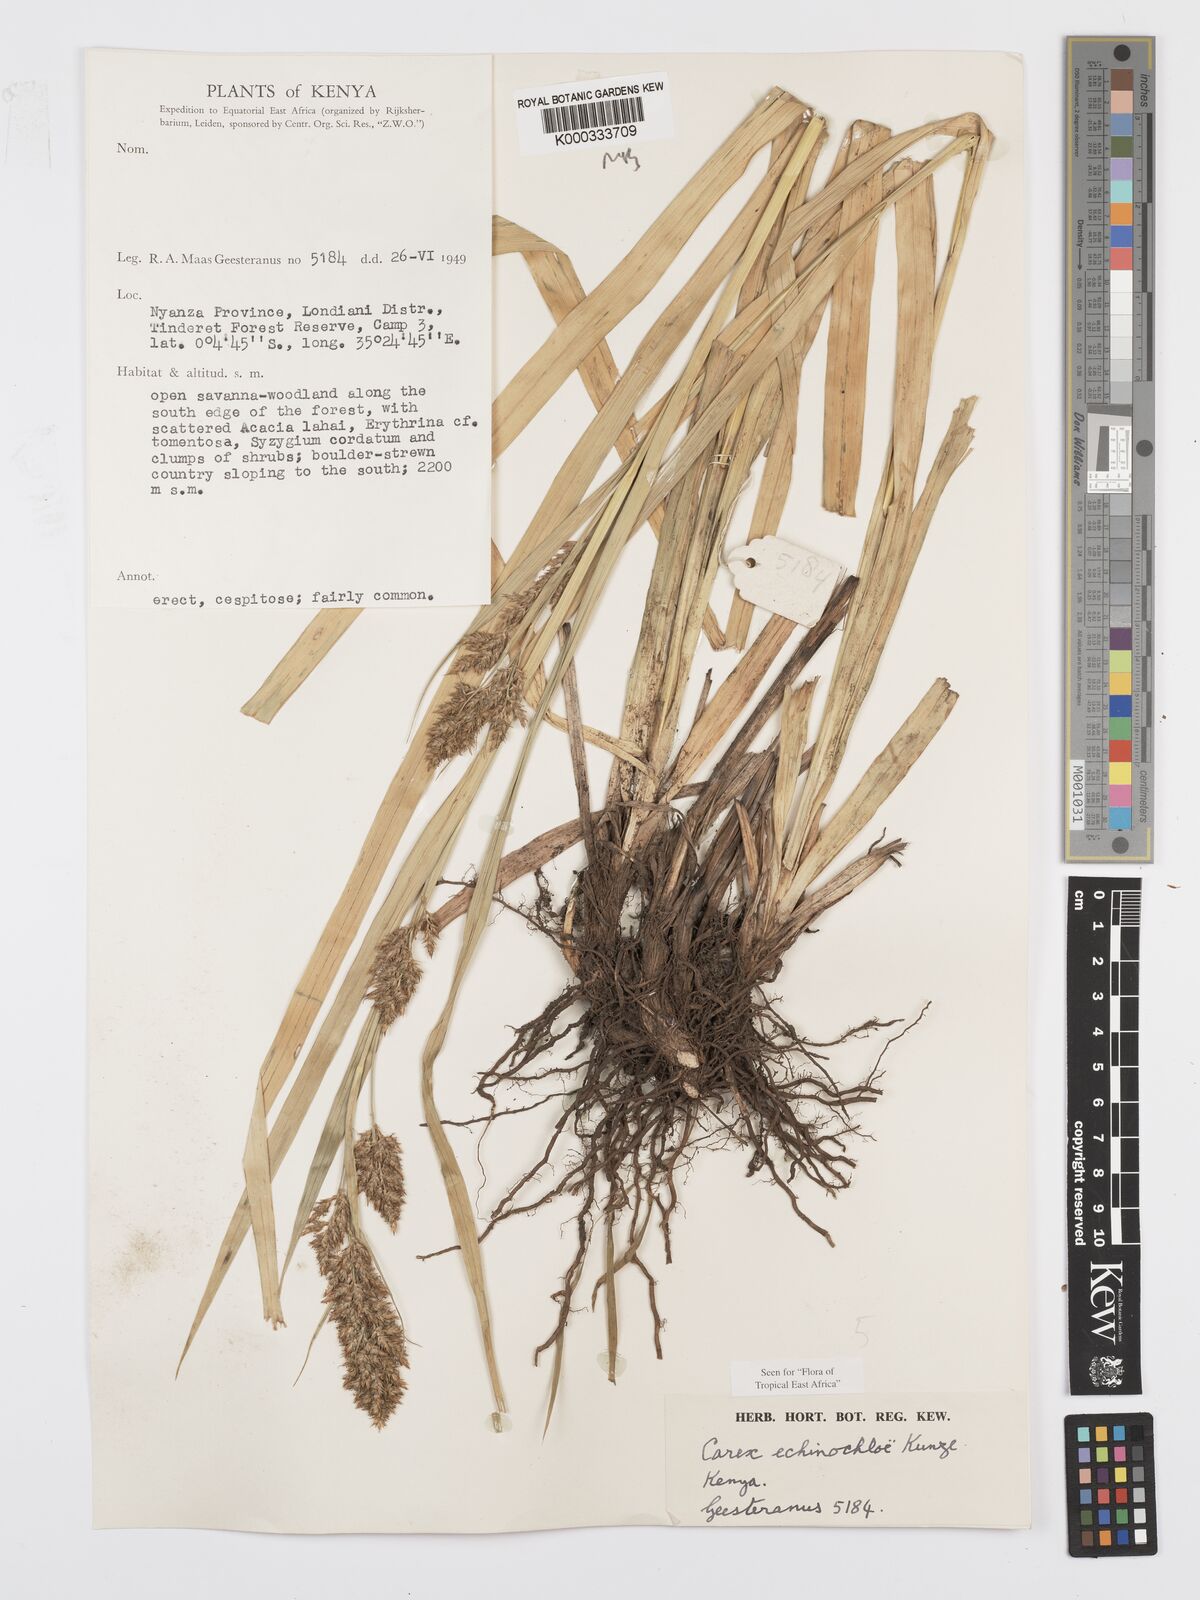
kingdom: Plantae
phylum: Tracheophyta
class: Liliopsida
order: Poales
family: Cyperaceae
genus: Carex
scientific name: Carex echinochloe
